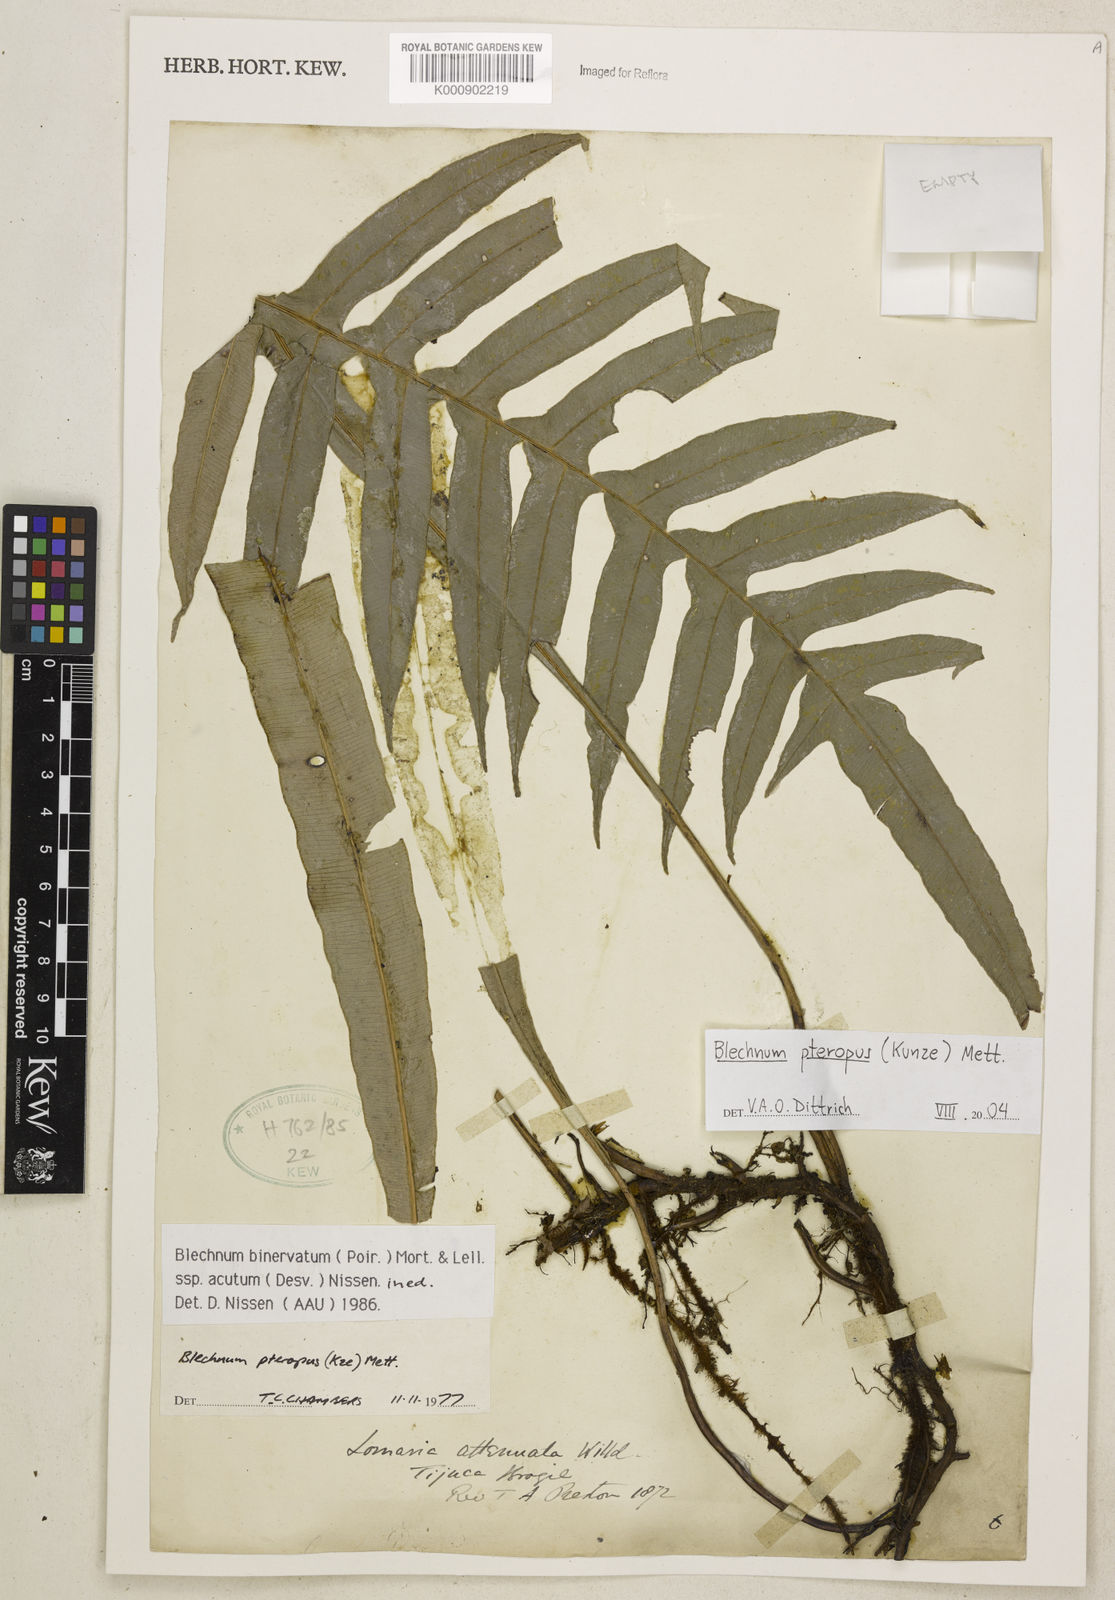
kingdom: Plantae
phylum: Tracheophyta
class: Polypodiopsida
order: Polypodiales
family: Blechnaceae
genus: Lomaridium
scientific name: Lomaridium pteropus
